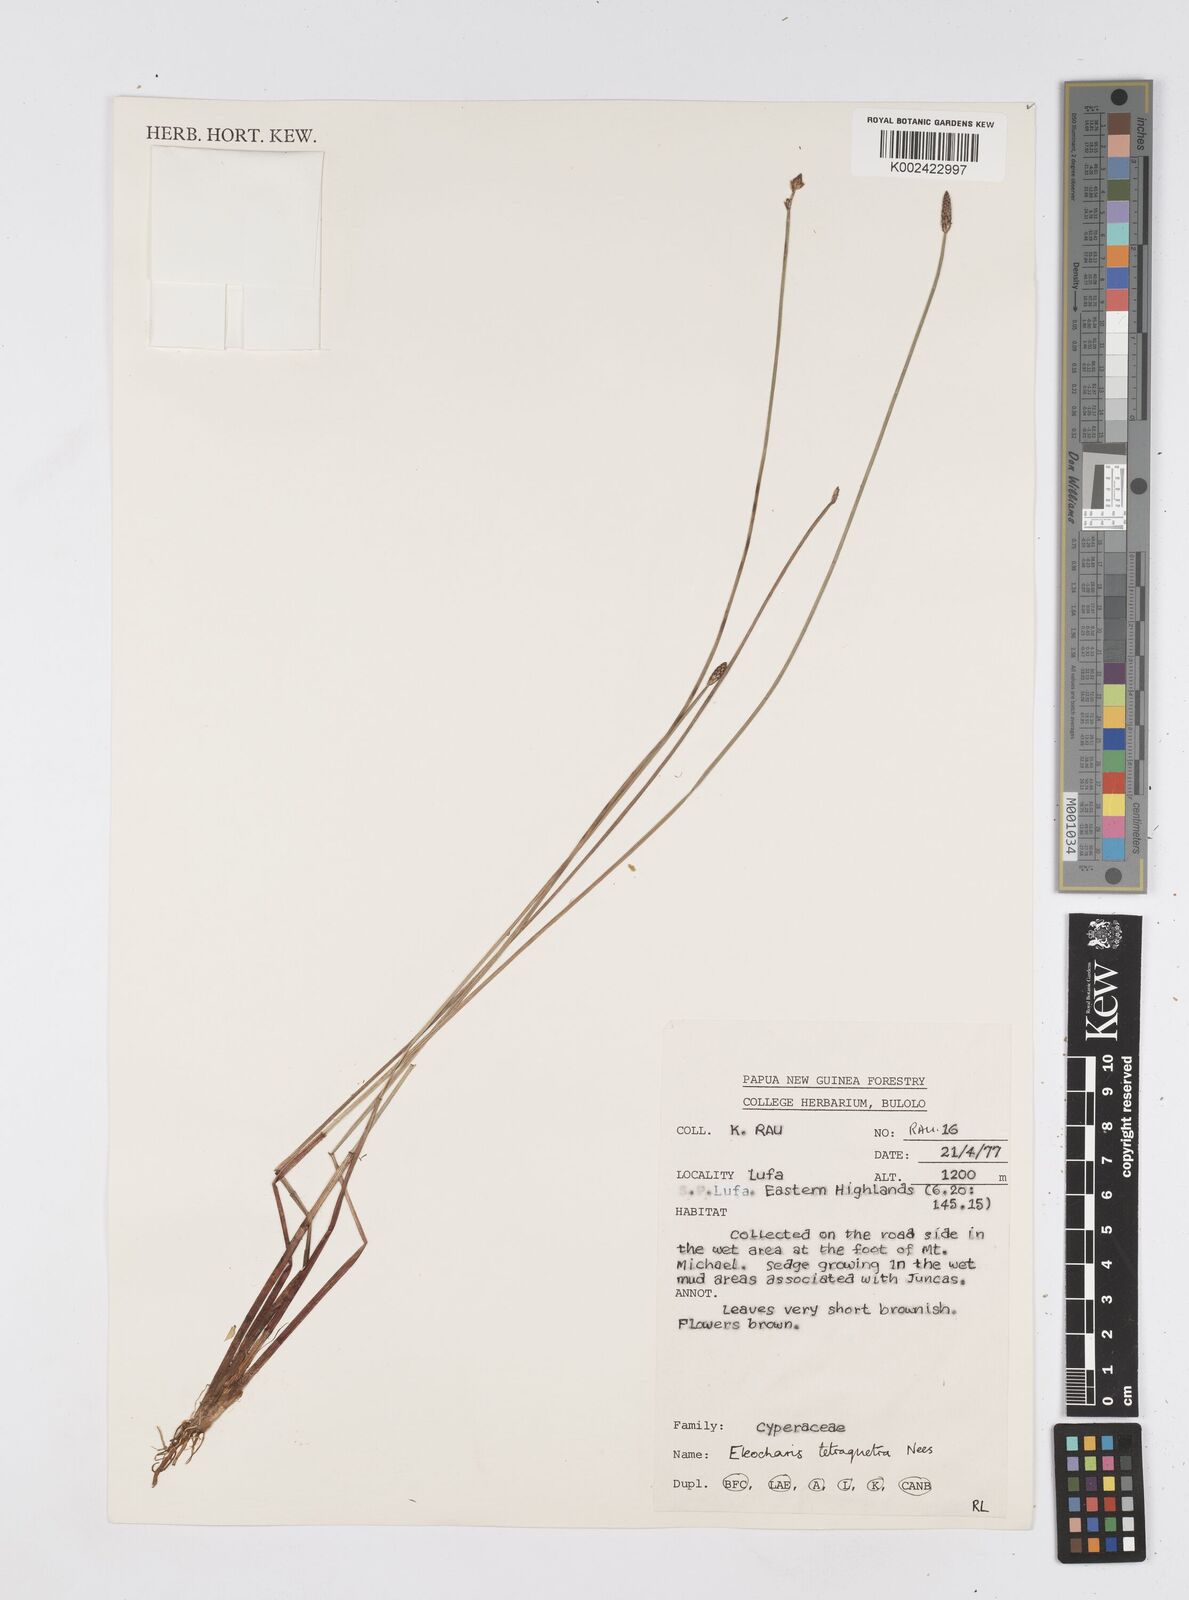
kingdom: Plantae
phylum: Tracheophyta
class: Liliopsida
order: Poales
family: Cyperaceae
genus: Eleocharis
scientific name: Eleocharis tetraquetra
